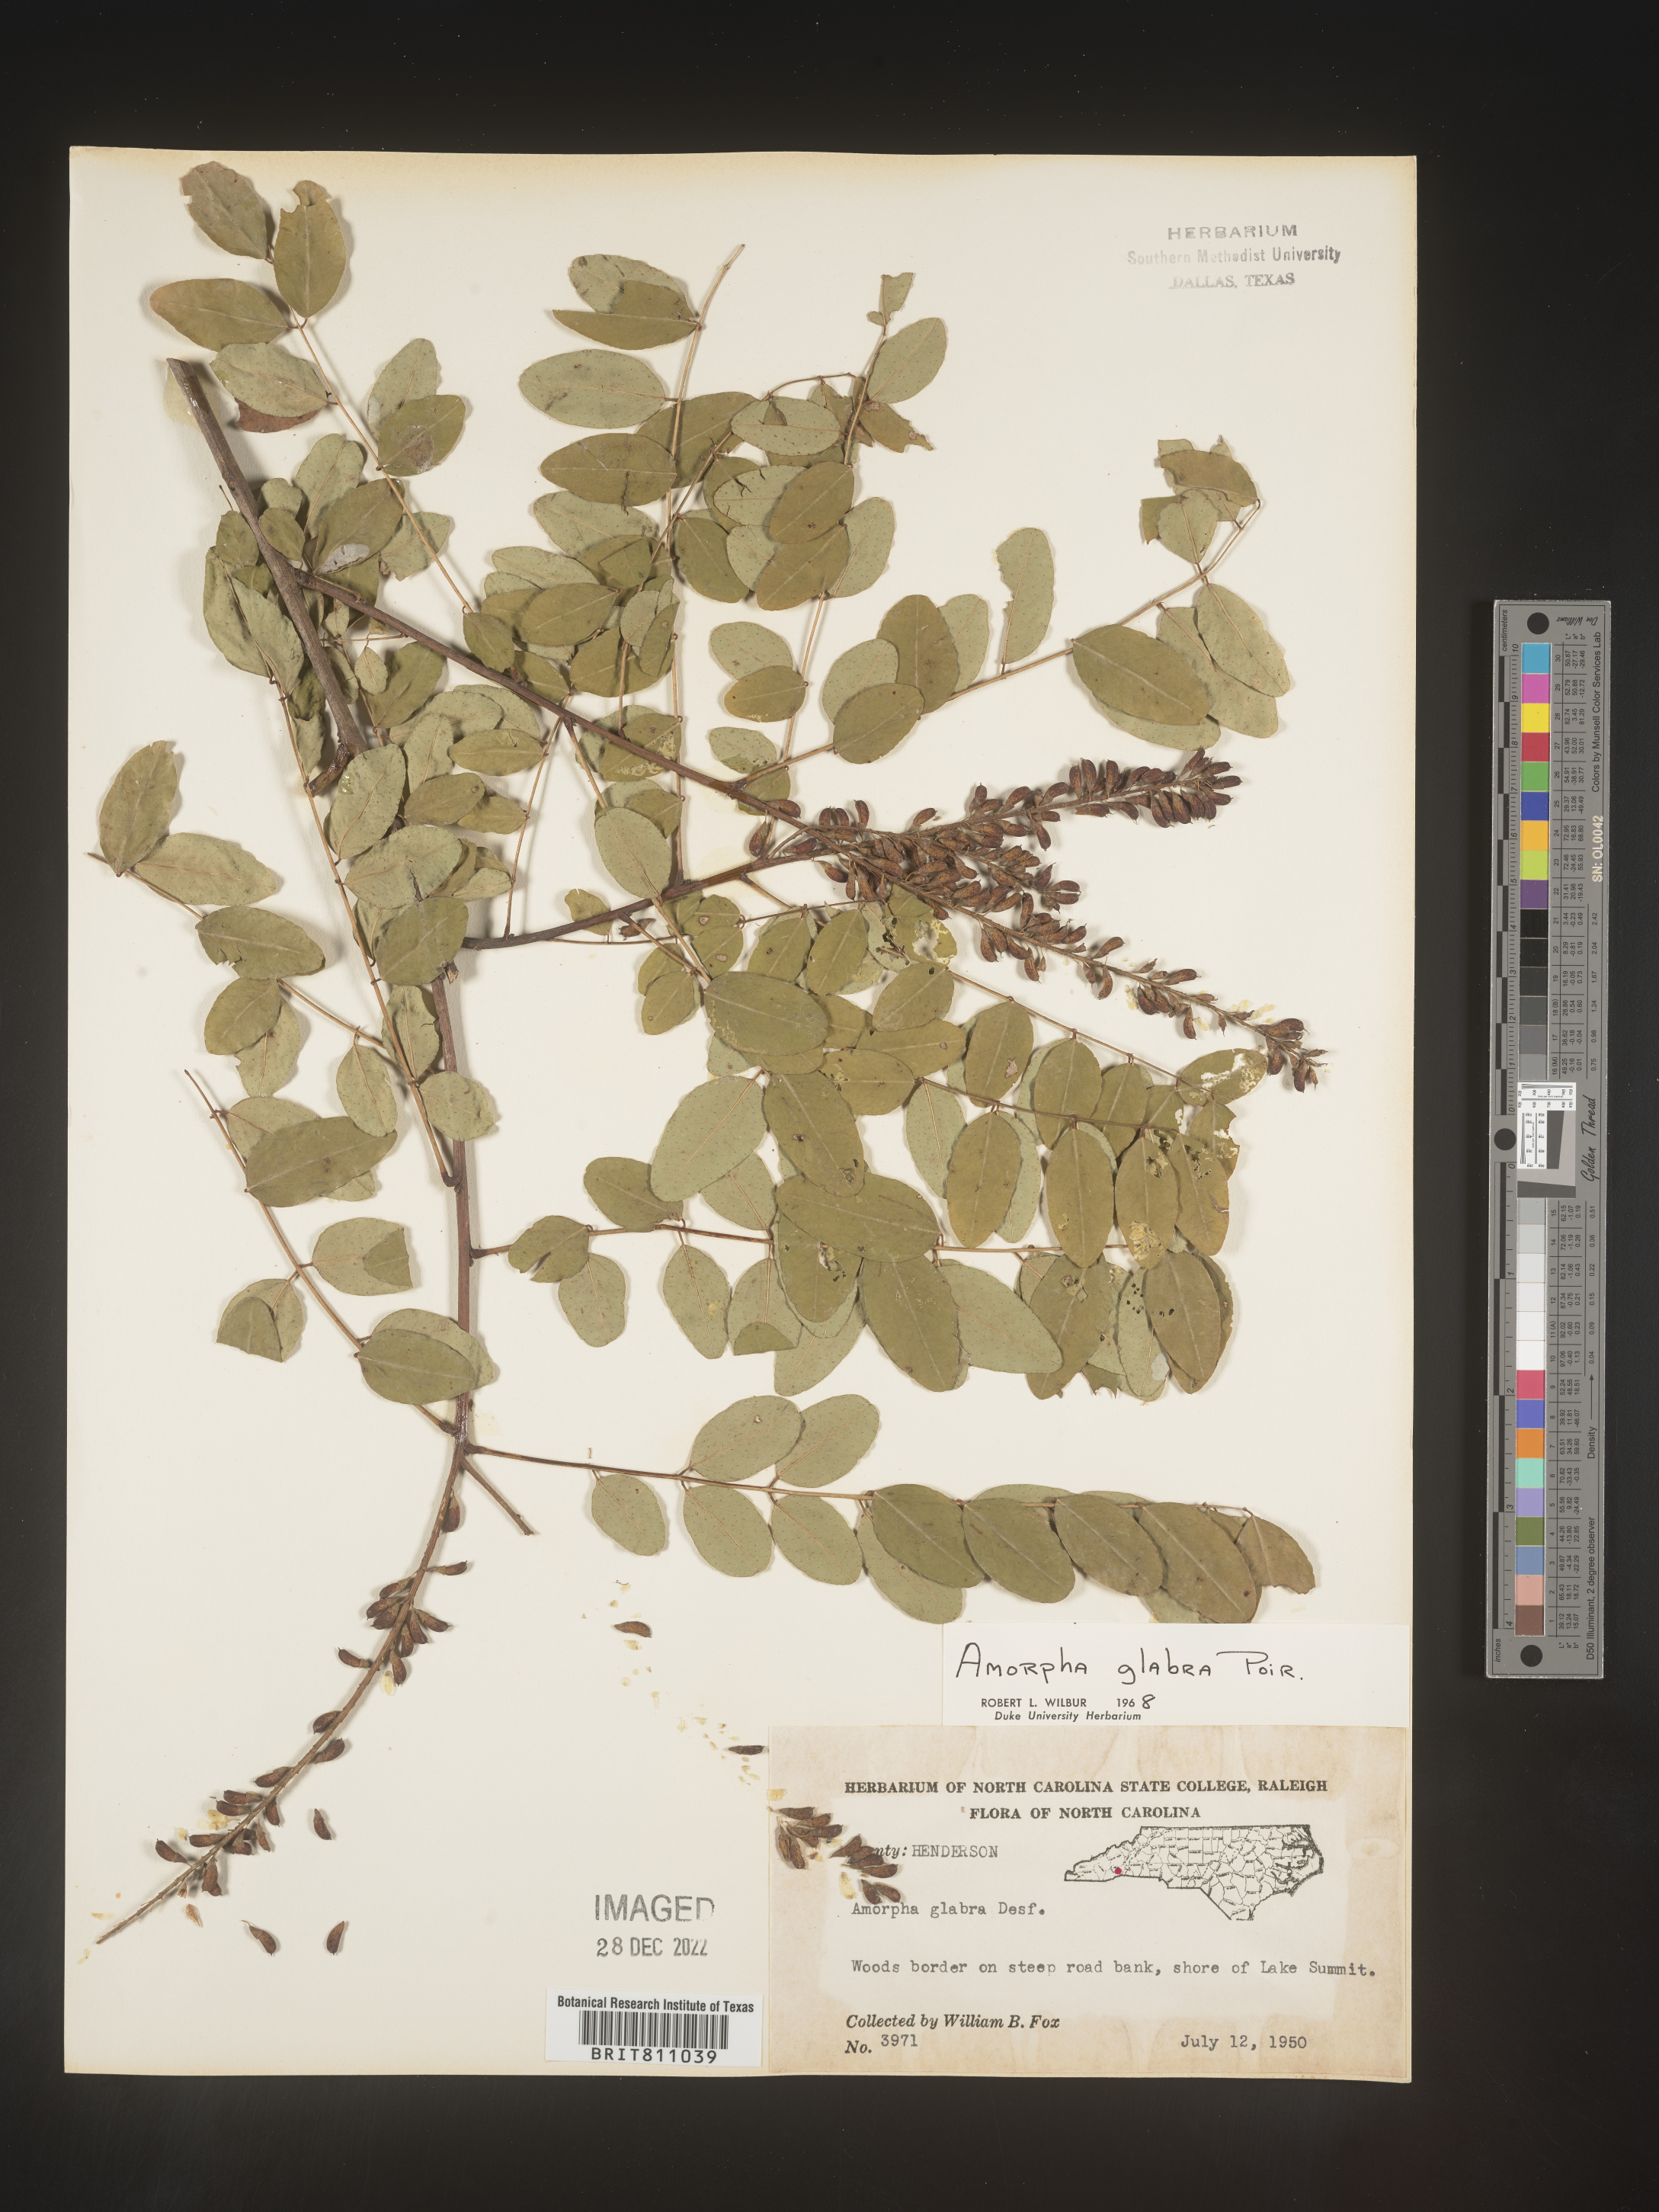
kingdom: Plantae
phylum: Tracheophyta
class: Magnoliopsida
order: Fabales
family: Fabaceae
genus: Amorpha
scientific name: Amorpha glabra
